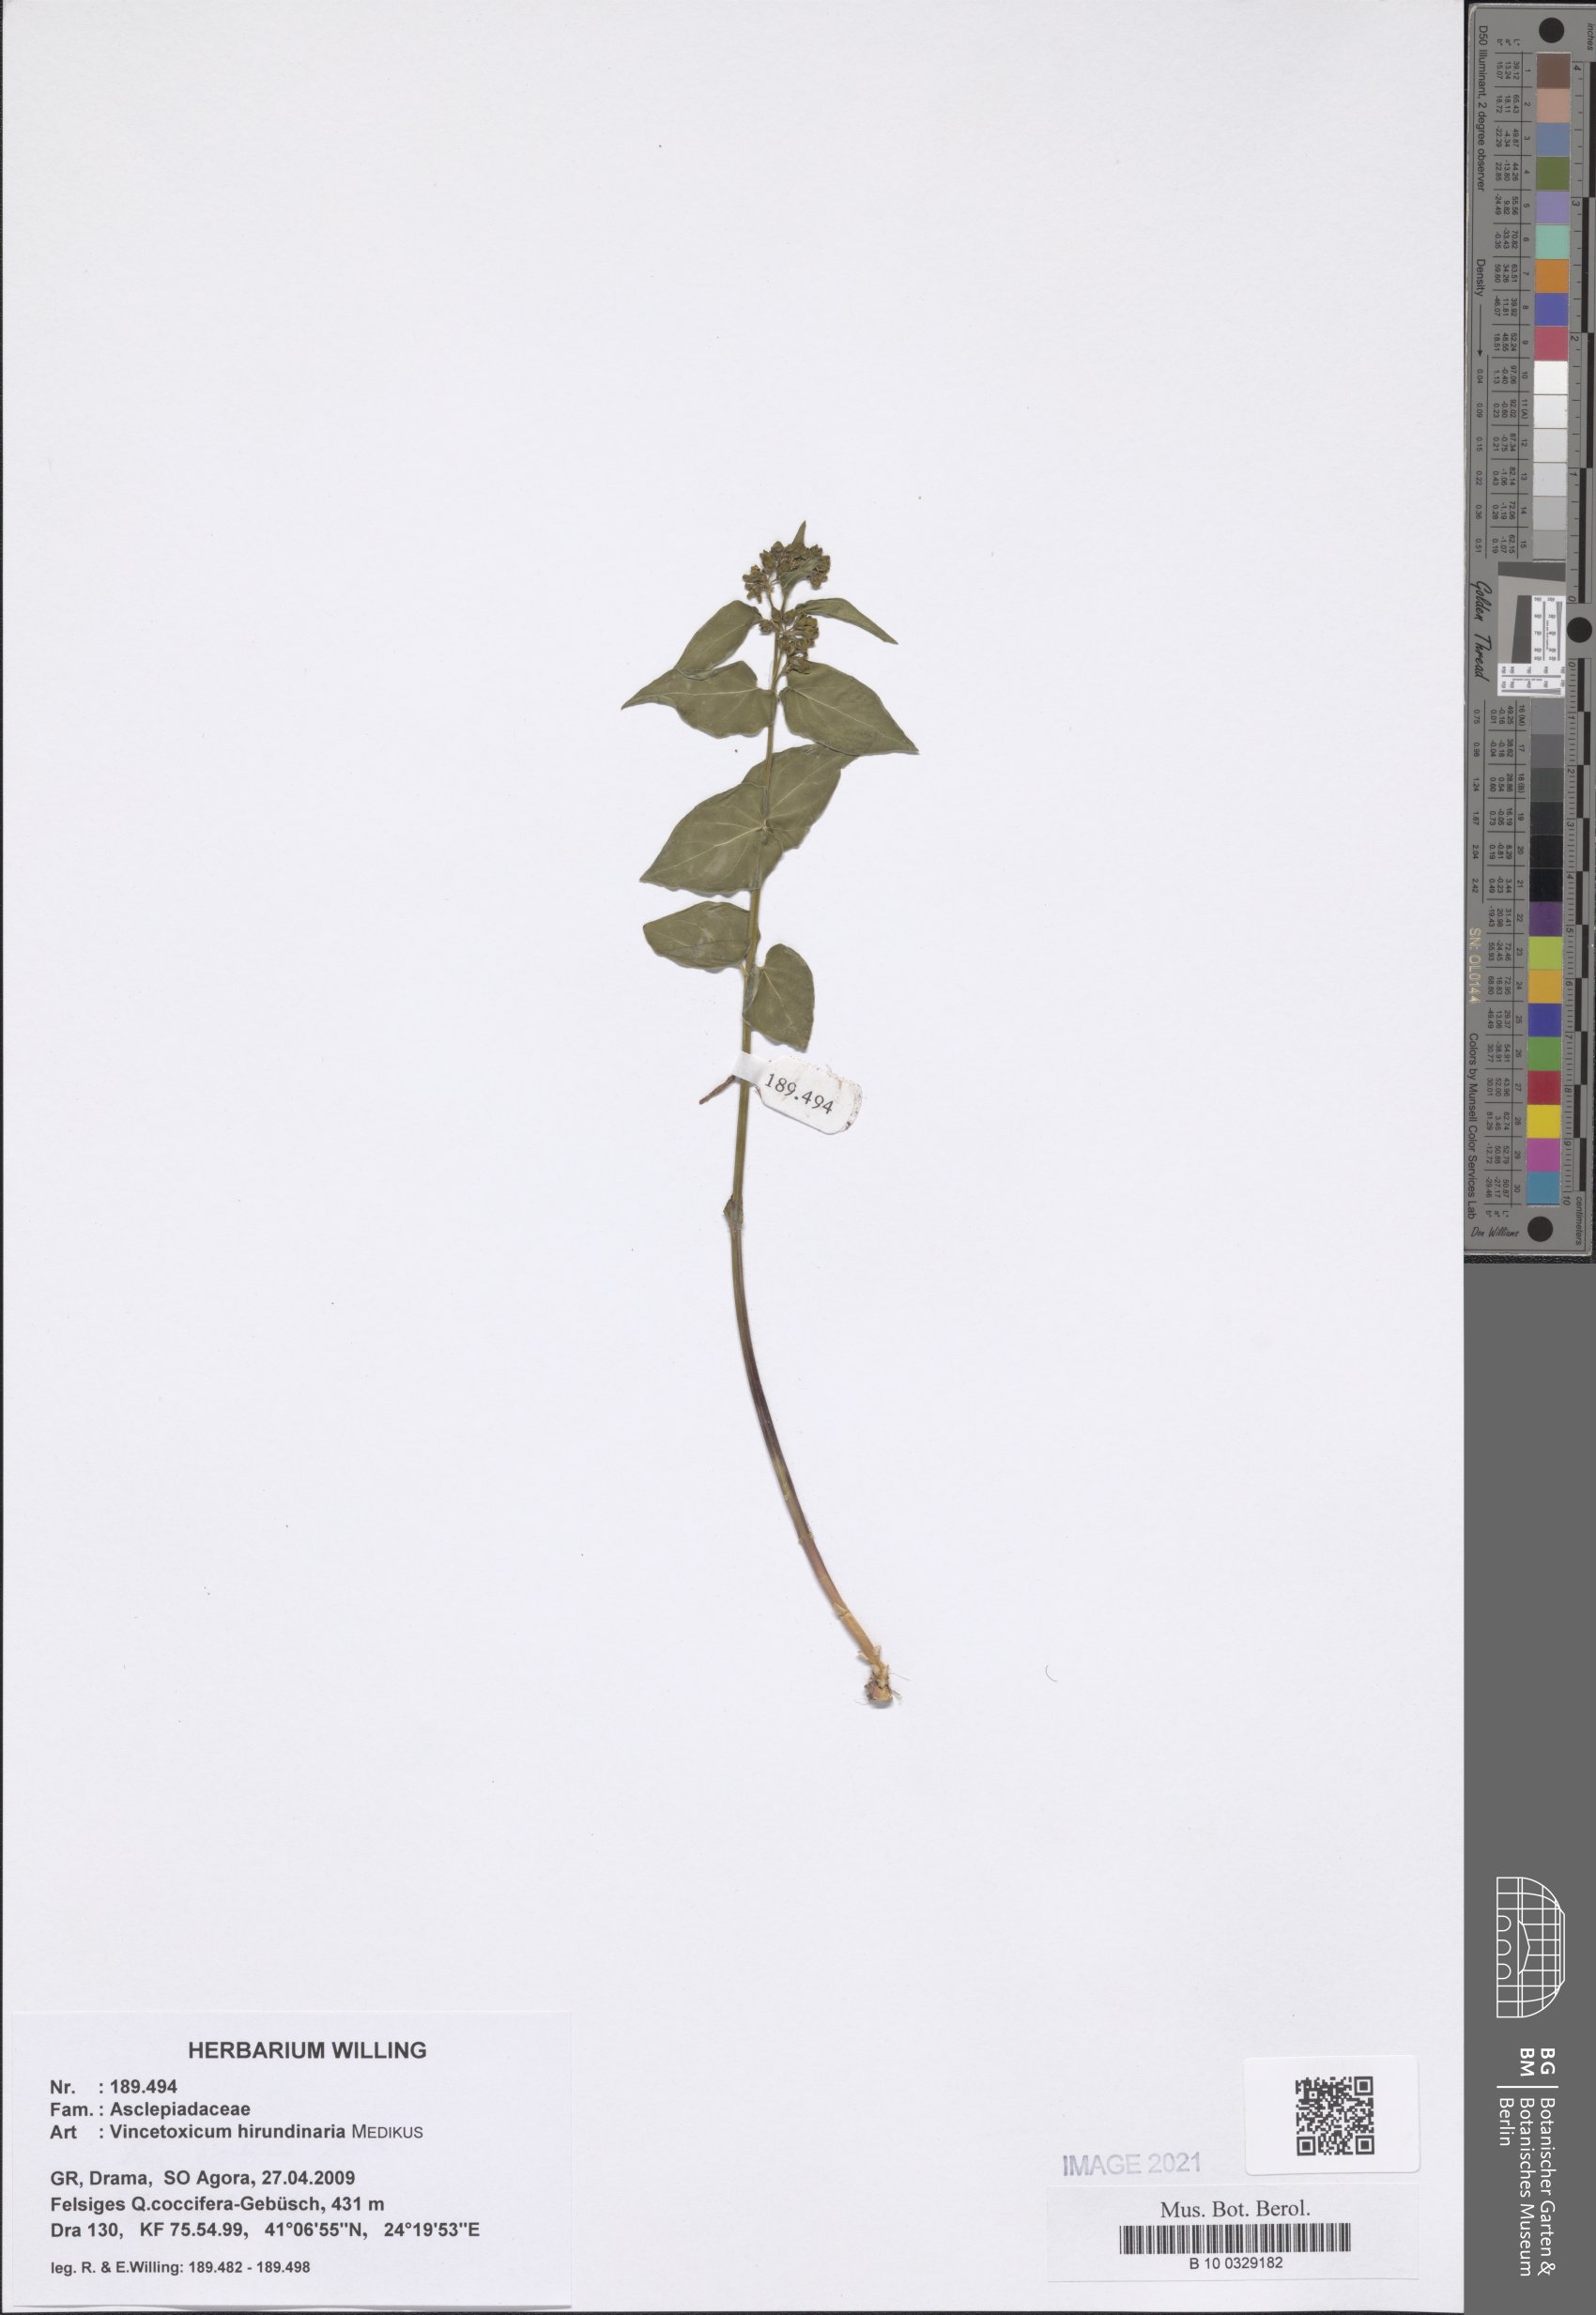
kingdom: Plantae
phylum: Tracheophyta
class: Magnoliopsida
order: Gentianales
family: Apocynaceae
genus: Vincetoxicum
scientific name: Vincetoxicum hirundinaria
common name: White swallowwort
